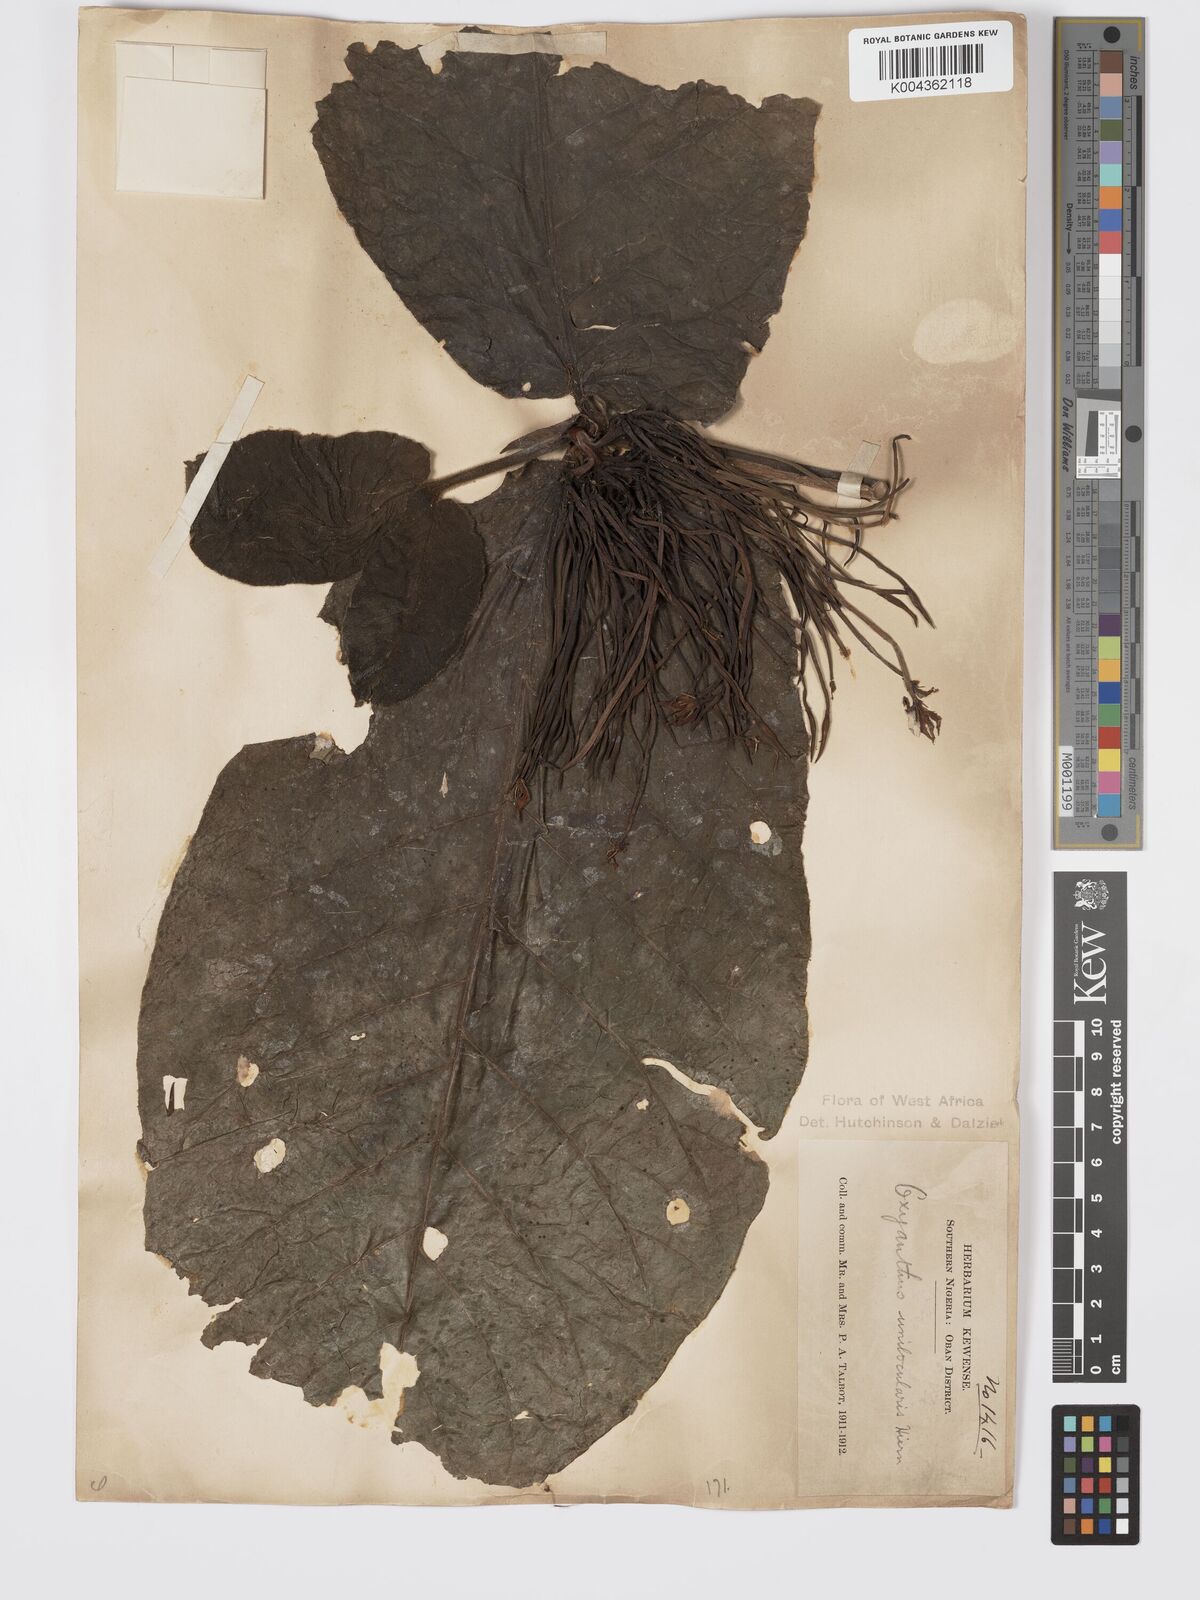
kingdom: Plantae
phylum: Tracheophyta
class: Magnoliopsida
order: Gentianales
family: Rubiaceae
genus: Oxyanthus
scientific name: Oxyanthus unilocularis
